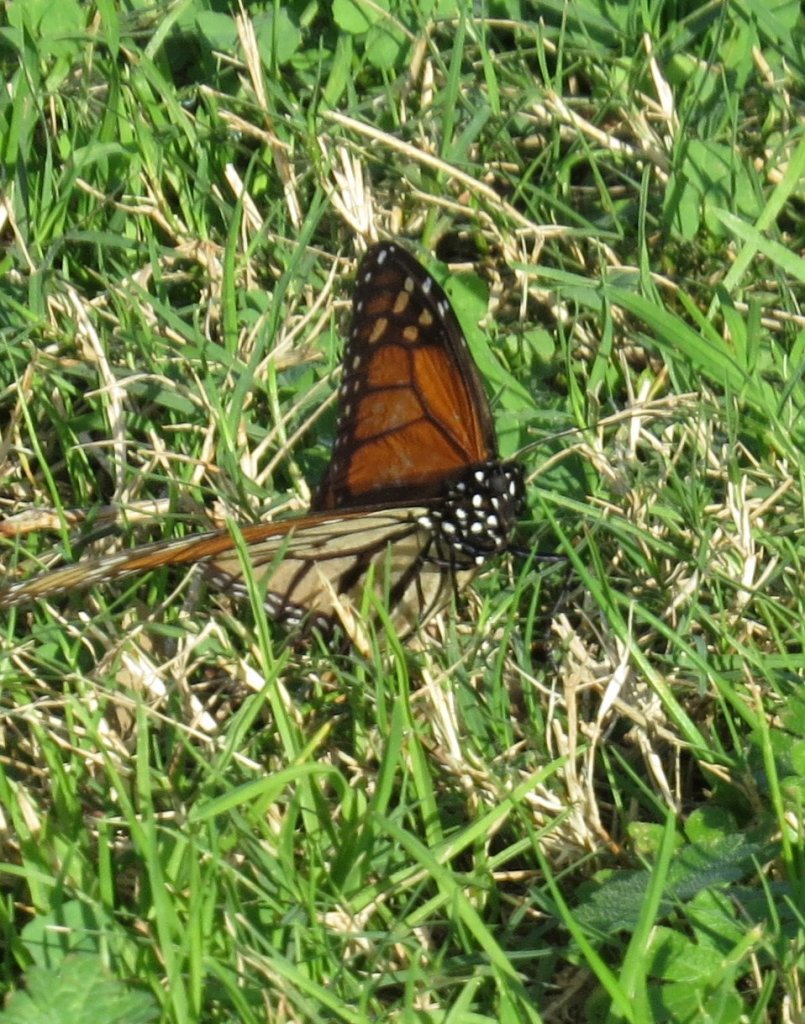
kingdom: Animalia
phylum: Arthropoda
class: Insecta
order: Lepidoptera
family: Nymphalidae
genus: Danaus
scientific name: Danaus plexippus
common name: Monarch
